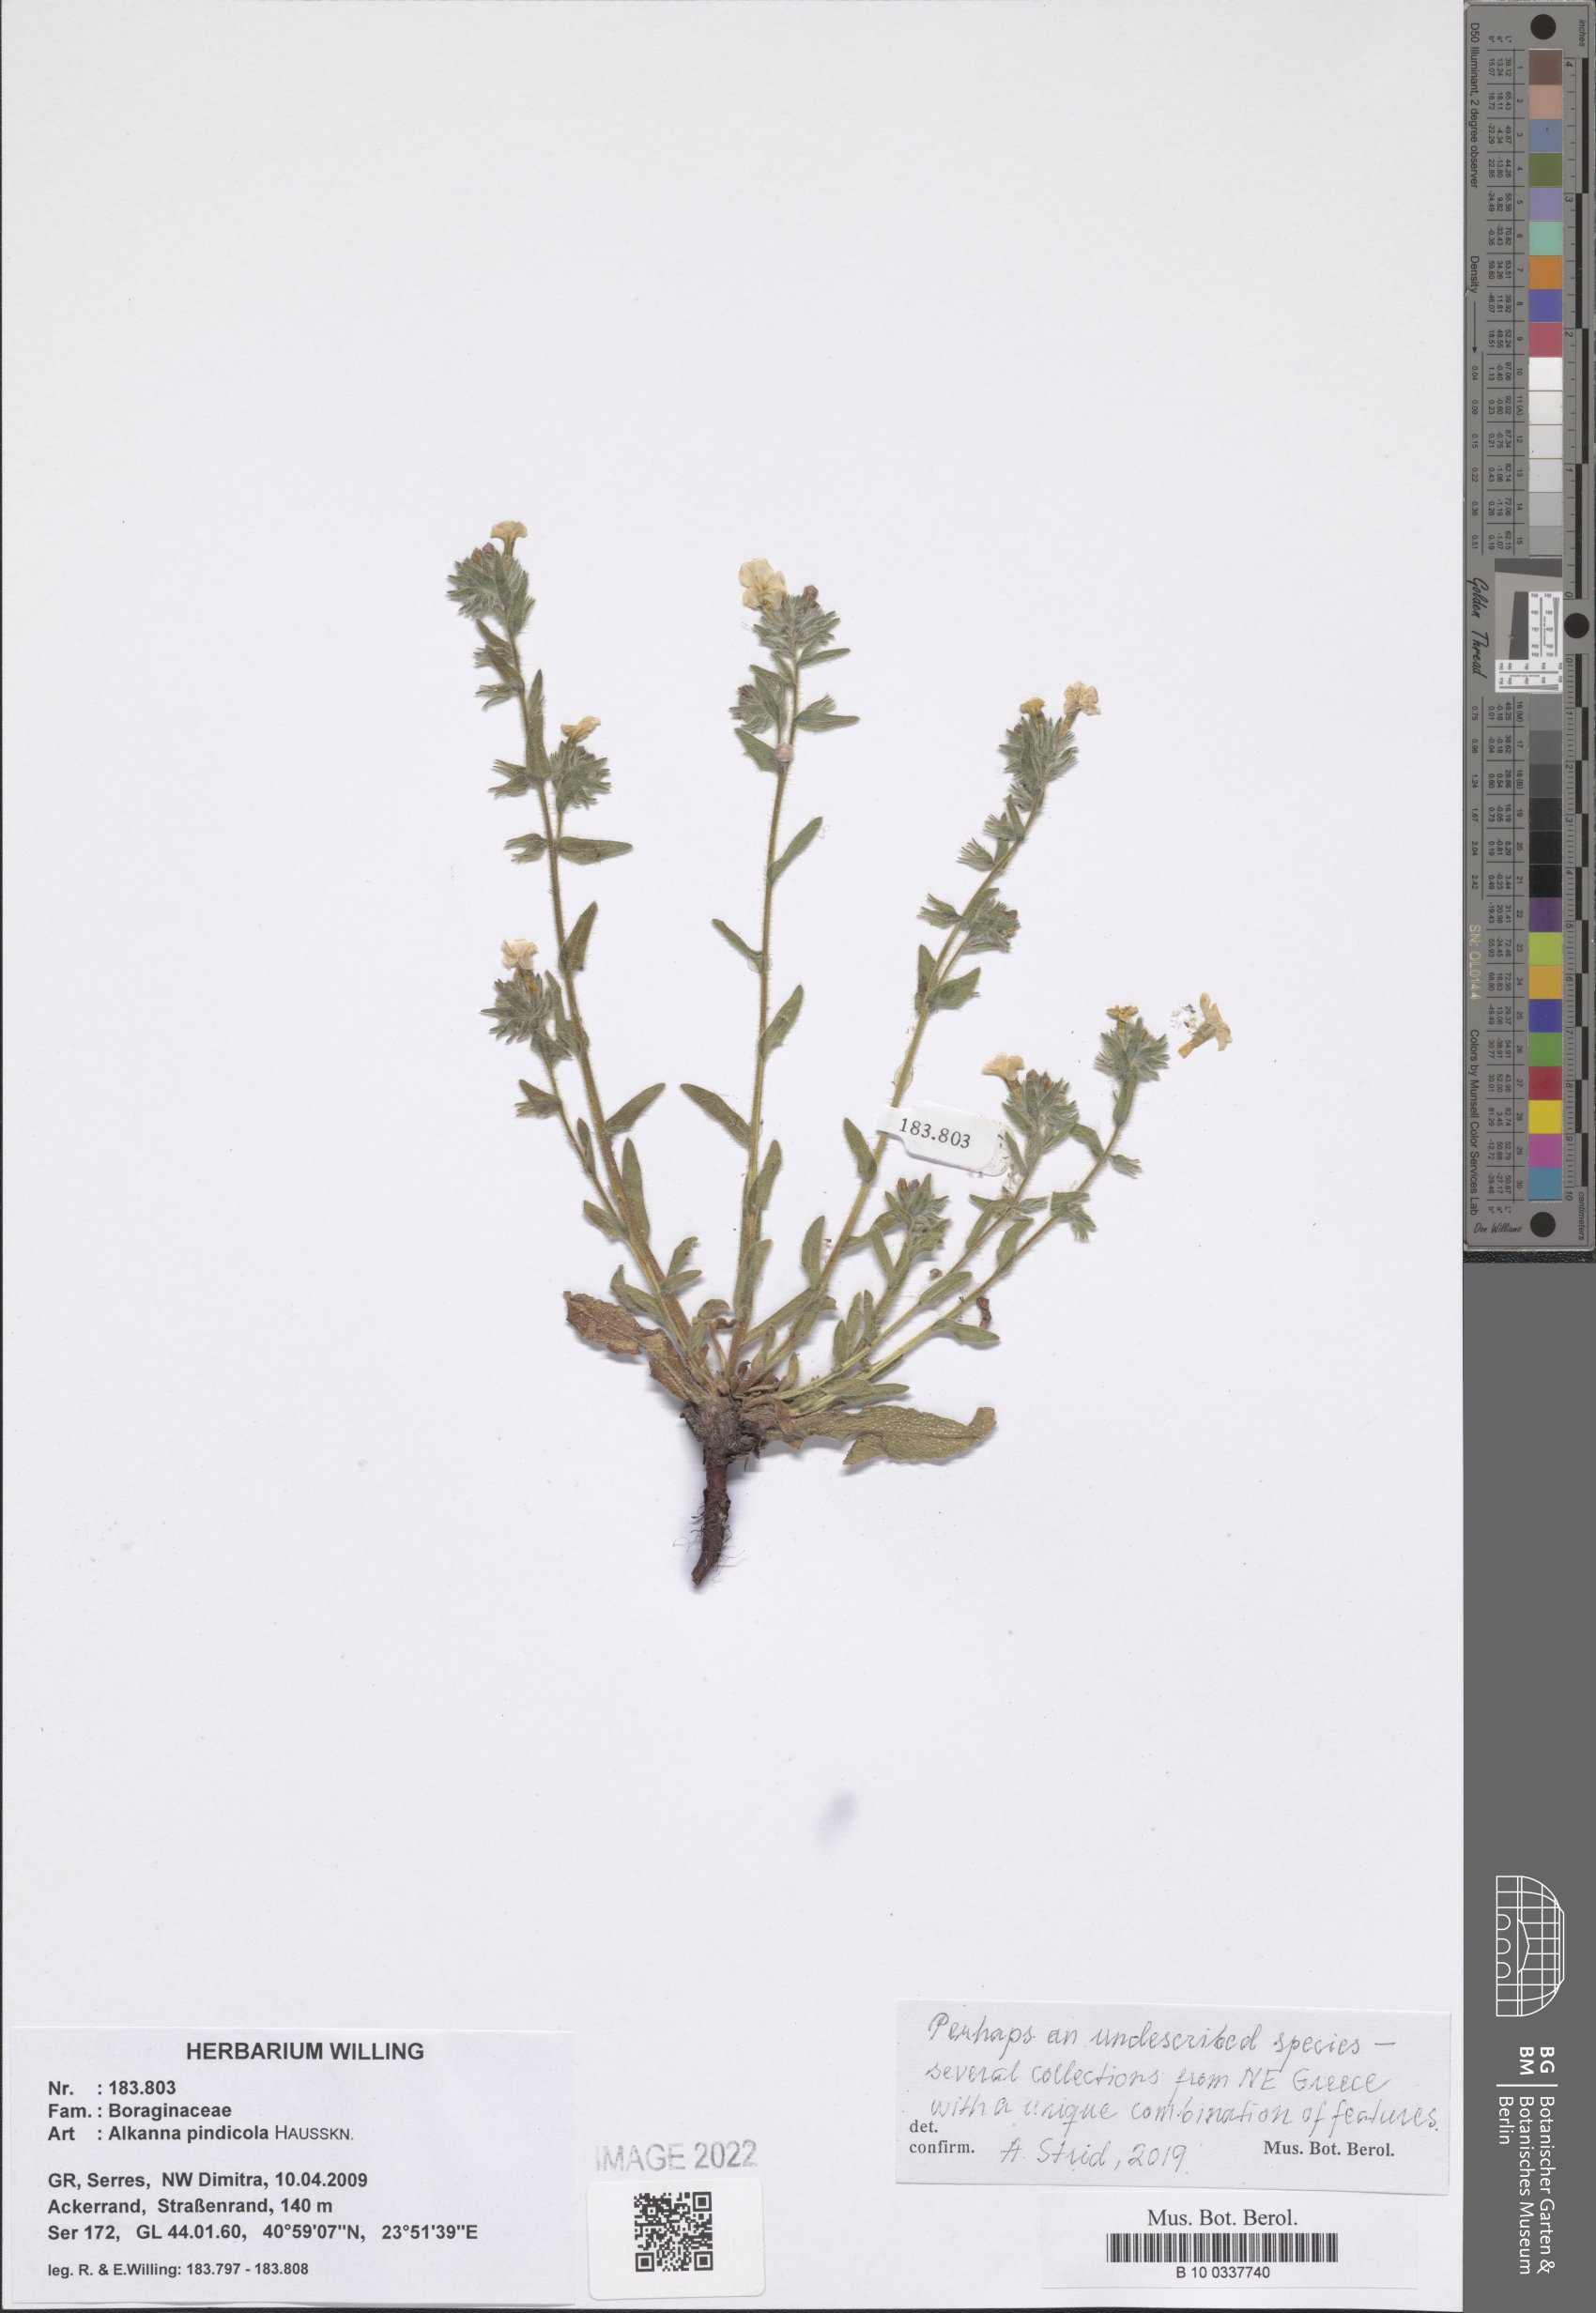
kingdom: Plantae
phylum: Tracheophyta
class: Magnoliopsida
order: Boraginales
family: Boraginaceae
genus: Alkanna
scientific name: Alkanna pindicola
